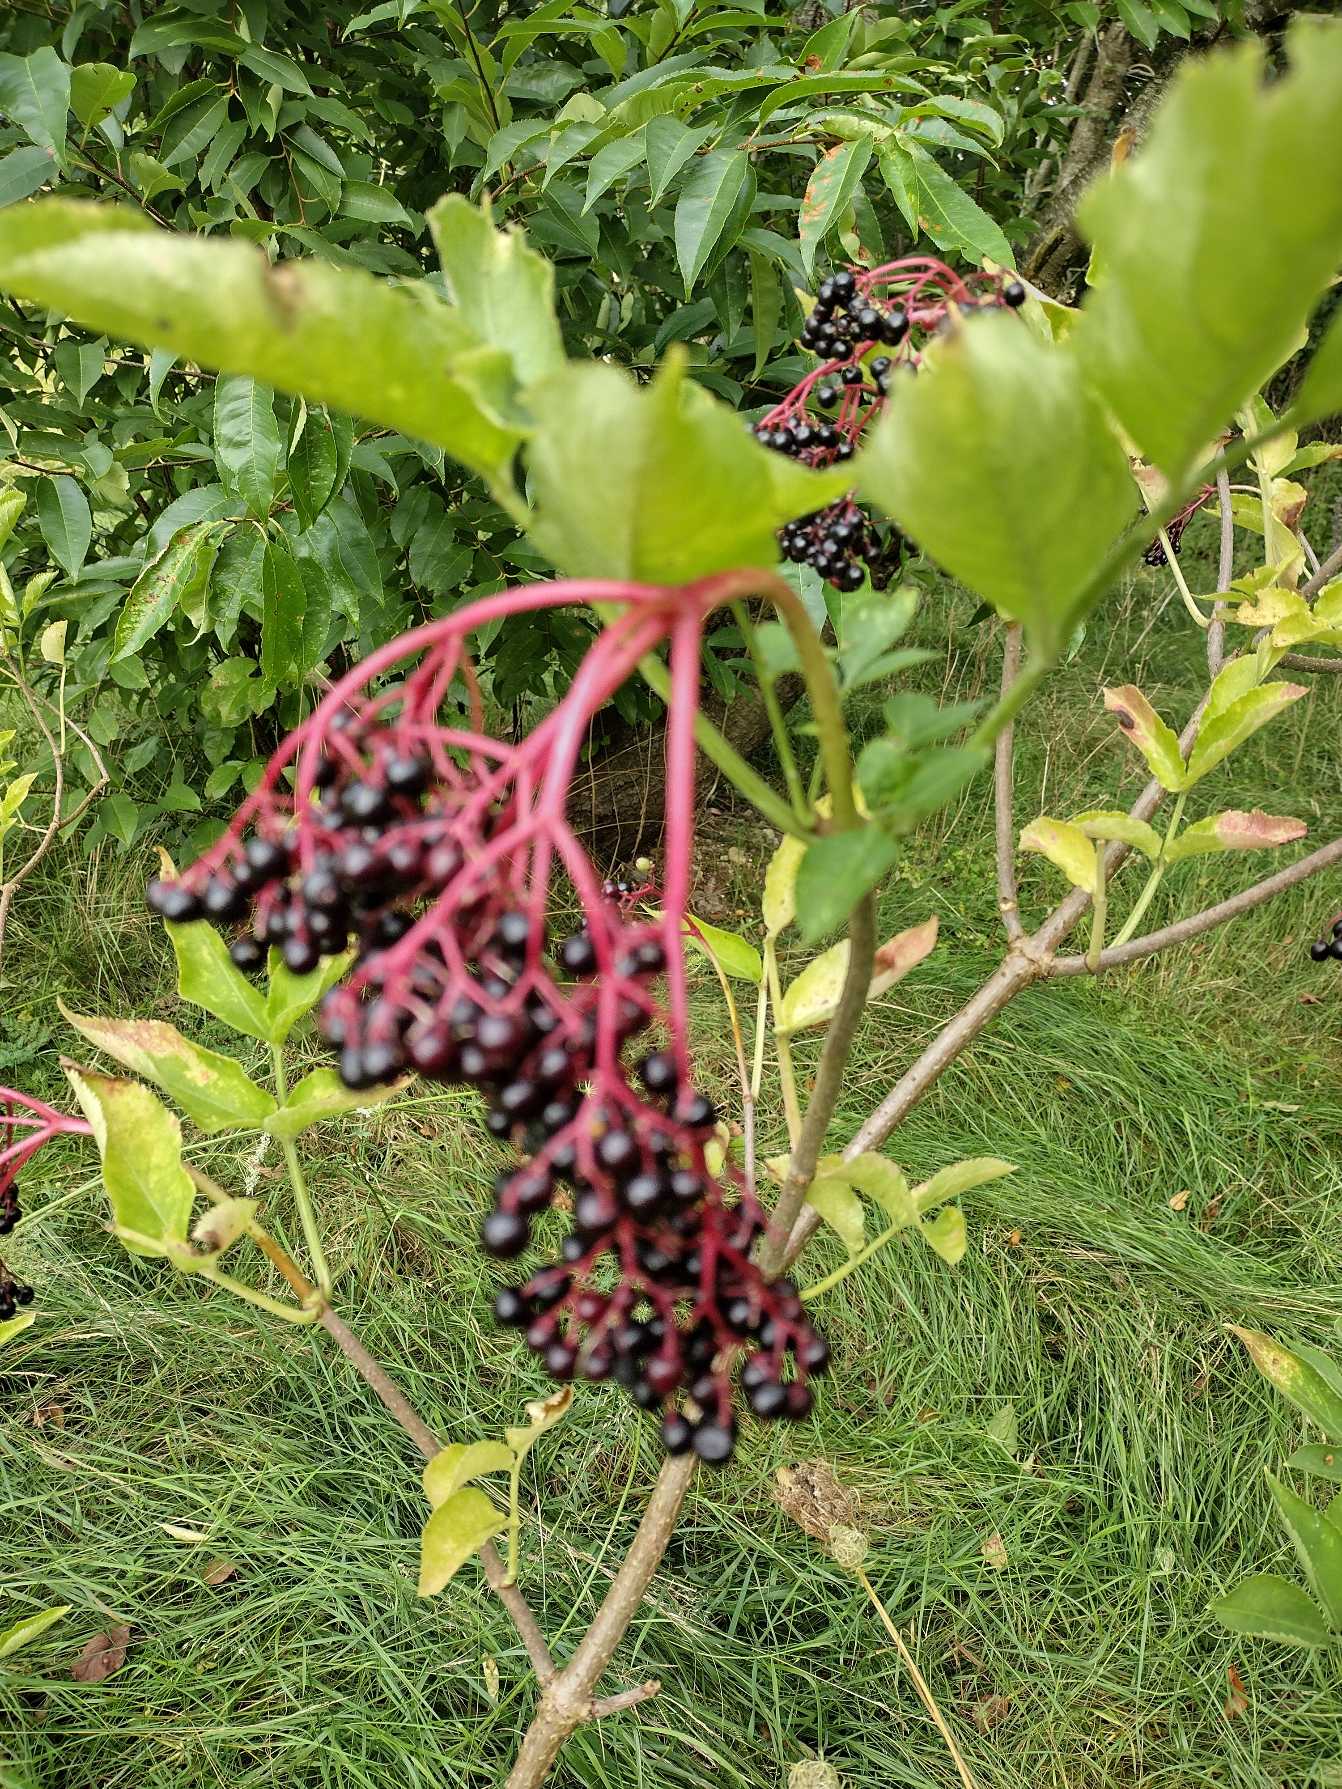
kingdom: Plantae
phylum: Tracheophyta
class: Magnoliopsida
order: Dipsacales
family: Viburnaceae
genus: Sambucus
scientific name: Sambucus nigra
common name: Almindelig hyld
